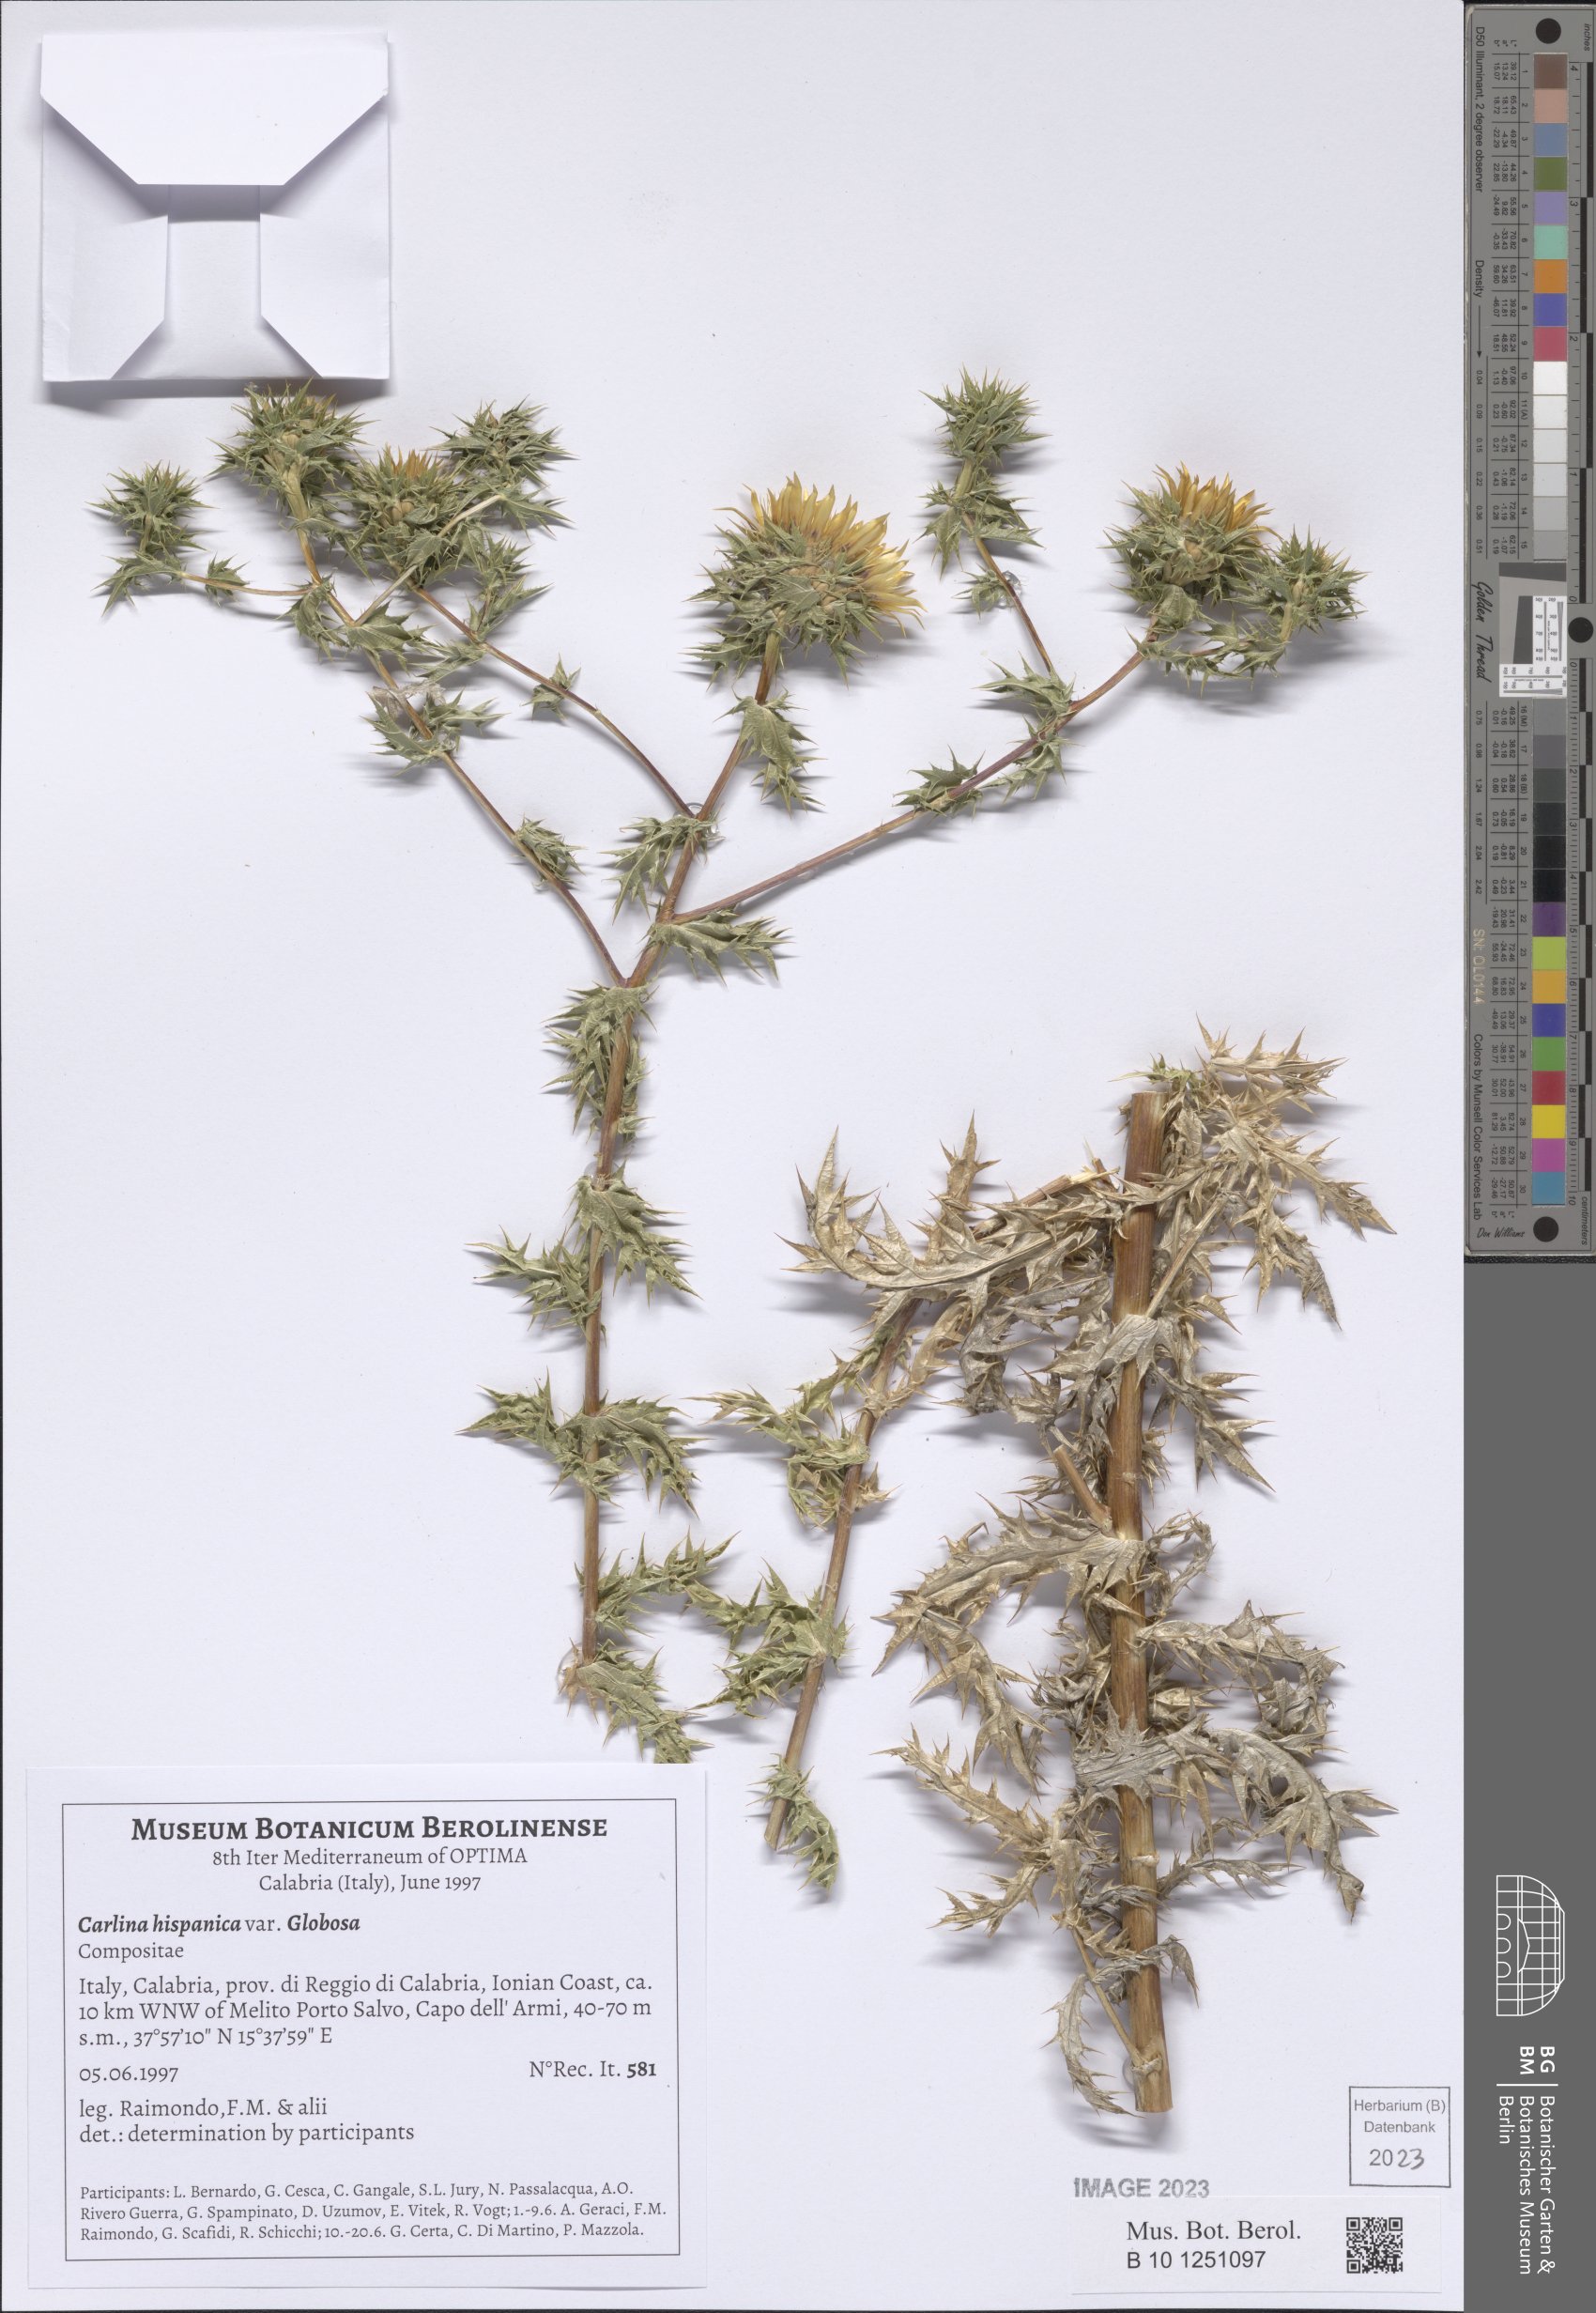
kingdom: Plantae
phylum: Tracheophyta
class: Magnoliopsida
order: Asterales
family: Asteraceae
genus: Carlina
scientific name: Carlina hispanica
